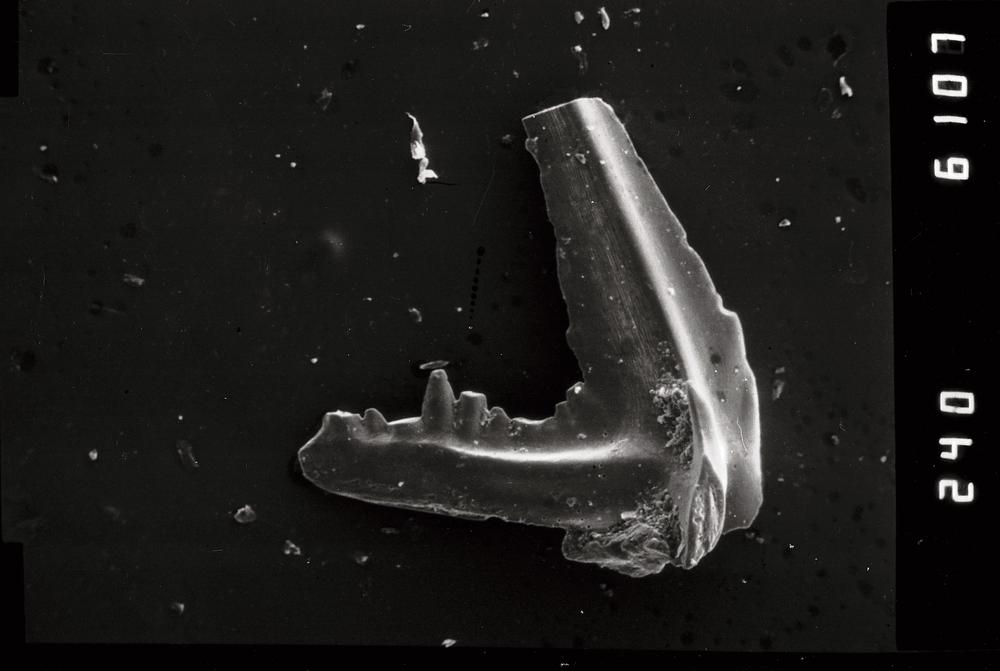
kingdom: Animalia
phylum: Chordata
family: Balognathidae
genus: Prioniodus
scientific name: Prioniodus
